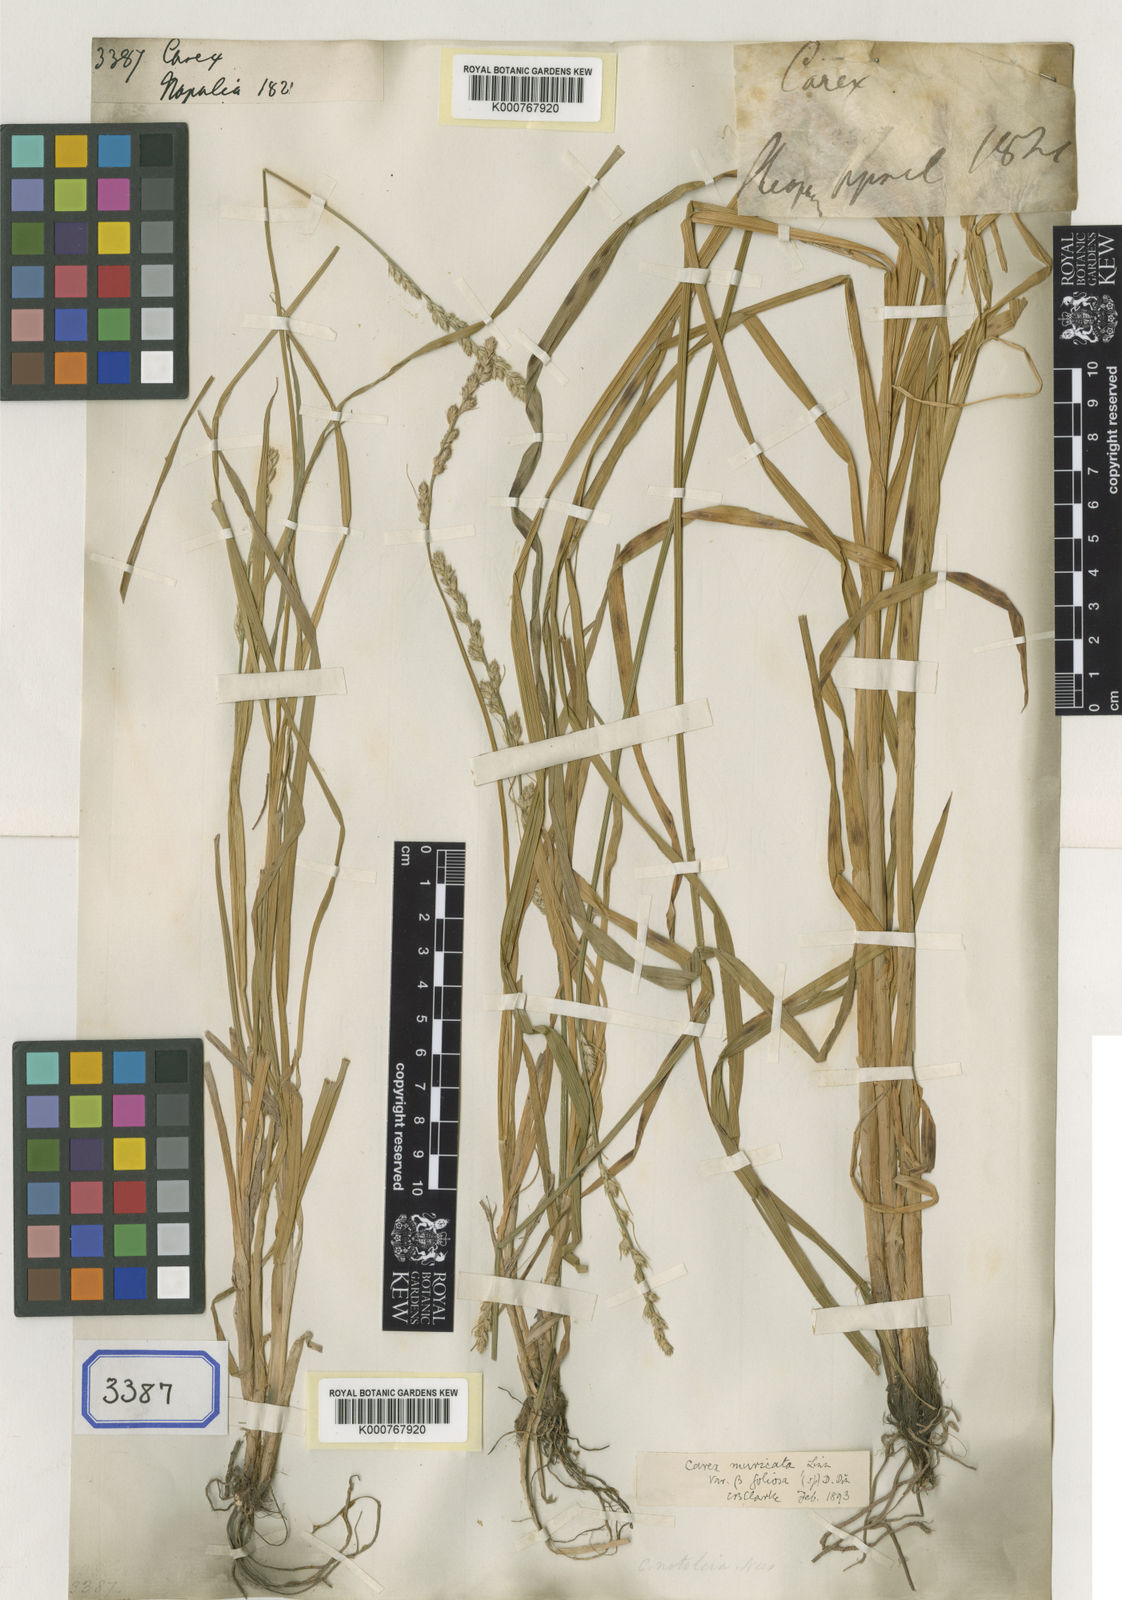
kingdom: Plantae
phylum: Tracheophyta
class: Liliopsida
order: Poales
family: Cyperaceae
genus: Carex
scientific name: Carex
